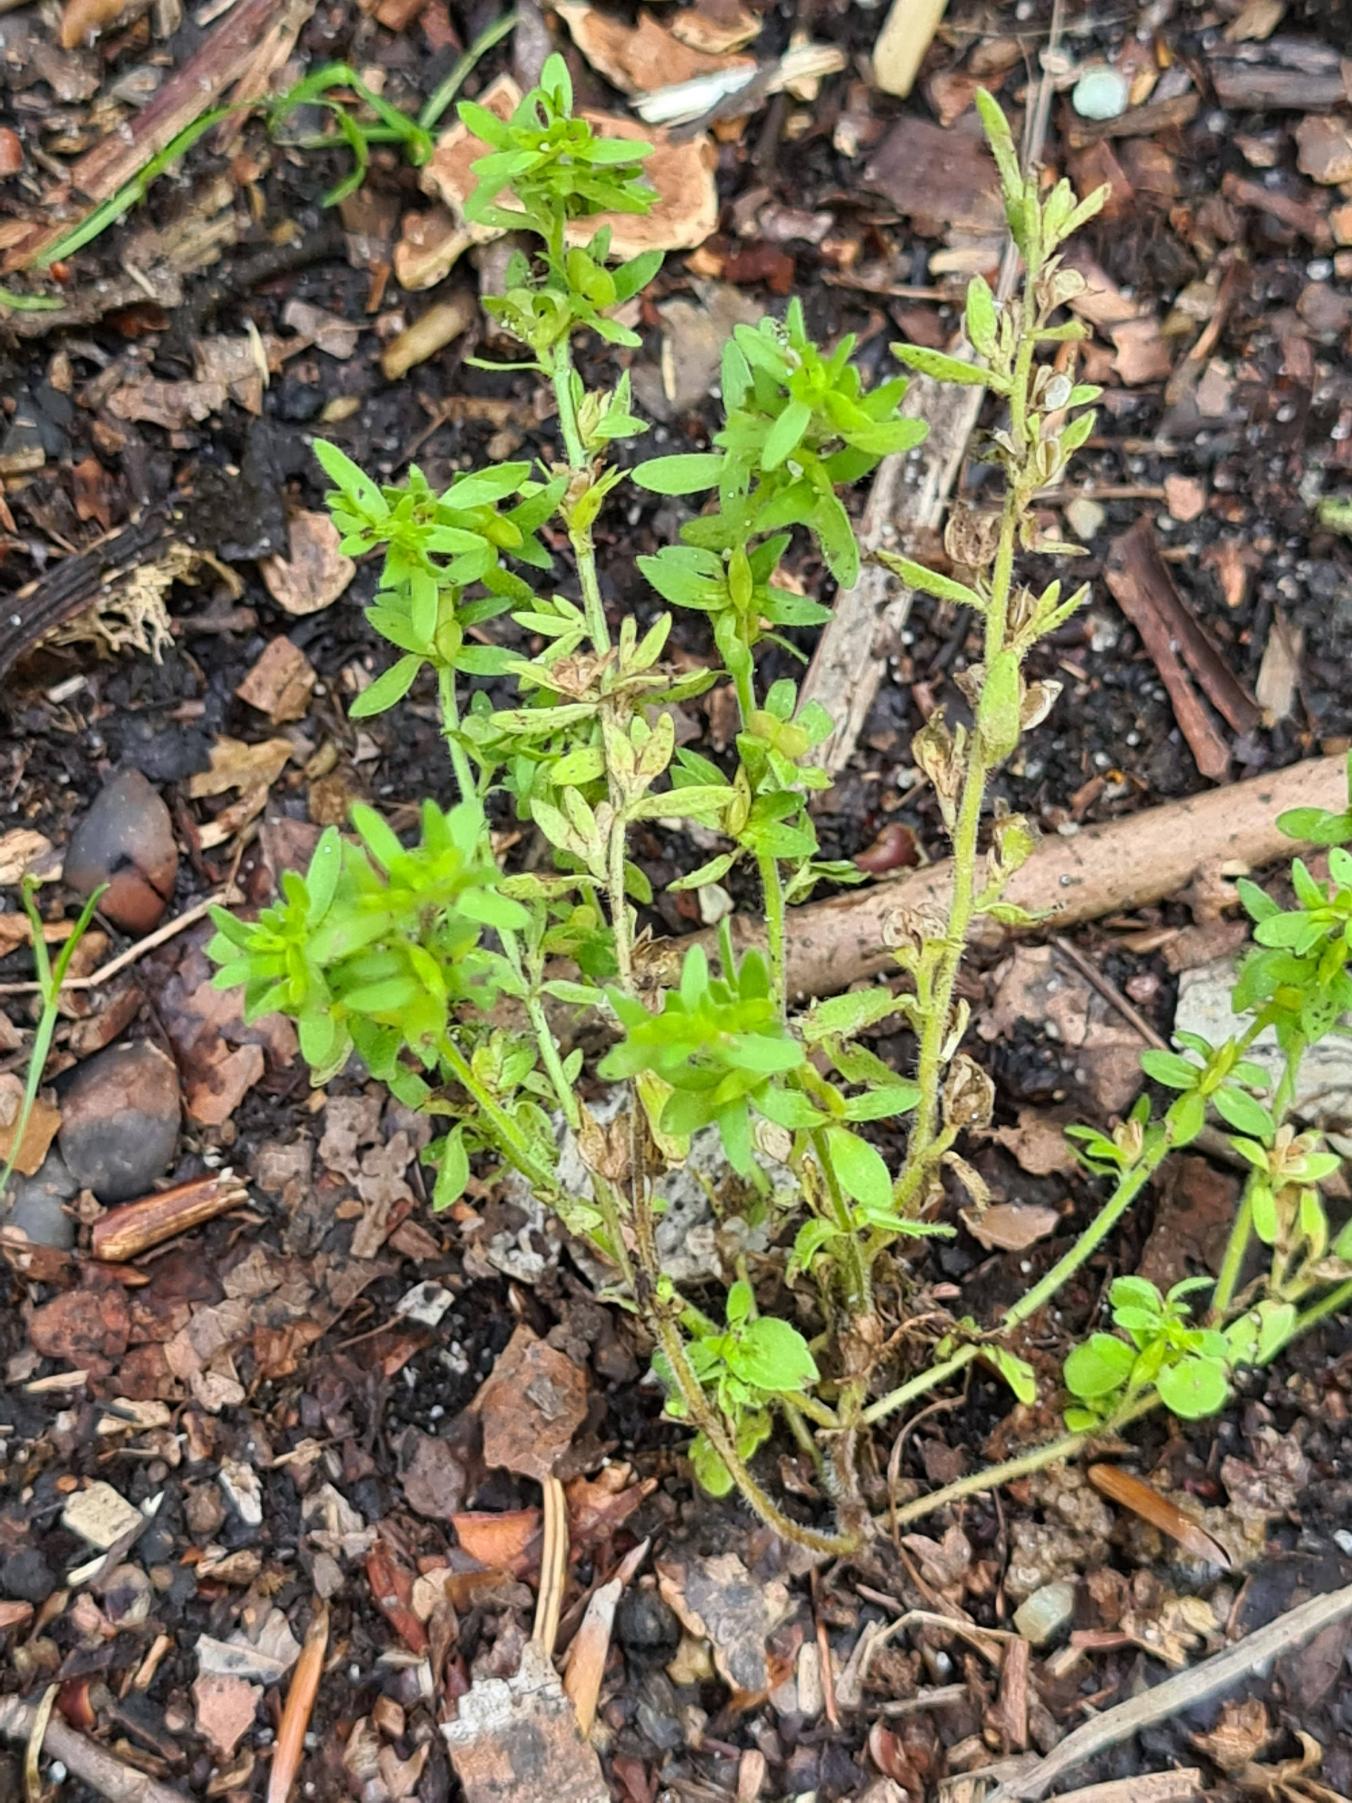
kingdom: Plantae
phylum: Tracheophyta
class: Magnoliopsida
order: Lamiales
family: Plantaginaceae
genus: Veronica
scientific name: Veronica arvensis
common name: Mark-ærenpris
